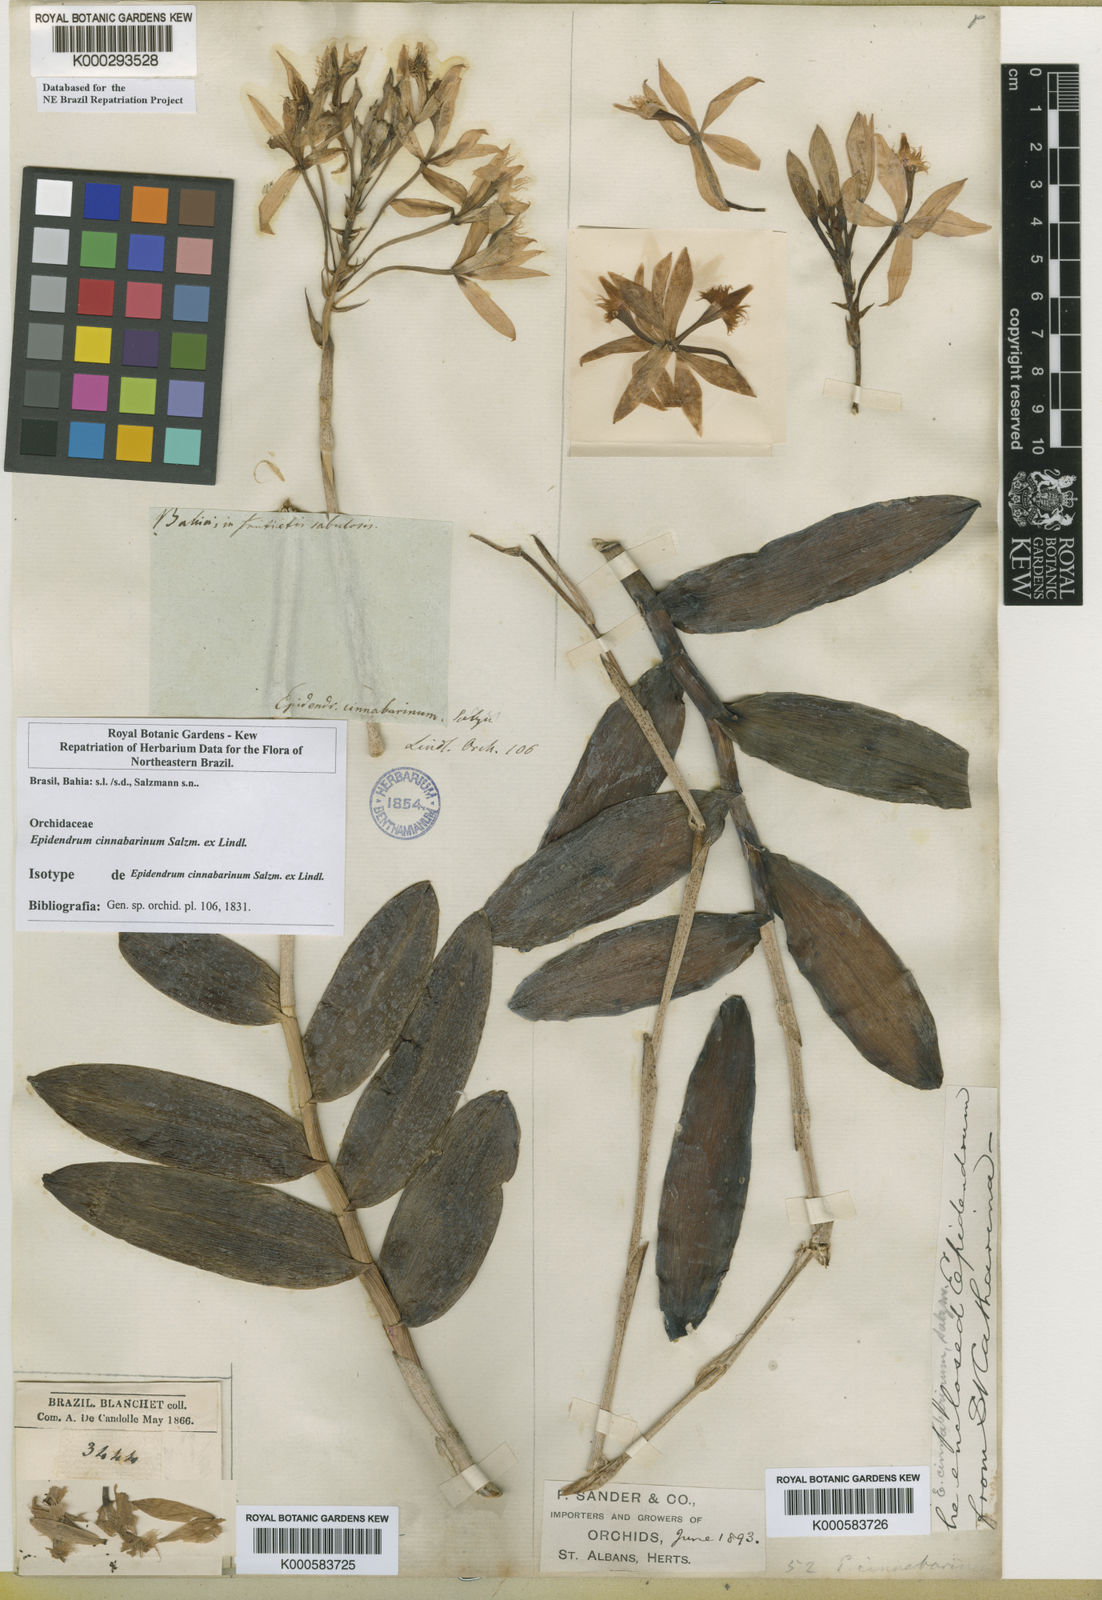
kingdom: Plantae
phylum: Tracheophyta
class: Liliopsida
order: Asparagales
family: Orchidaceae
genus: Epidendrum
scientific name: Epidendrum cinnabarinum
